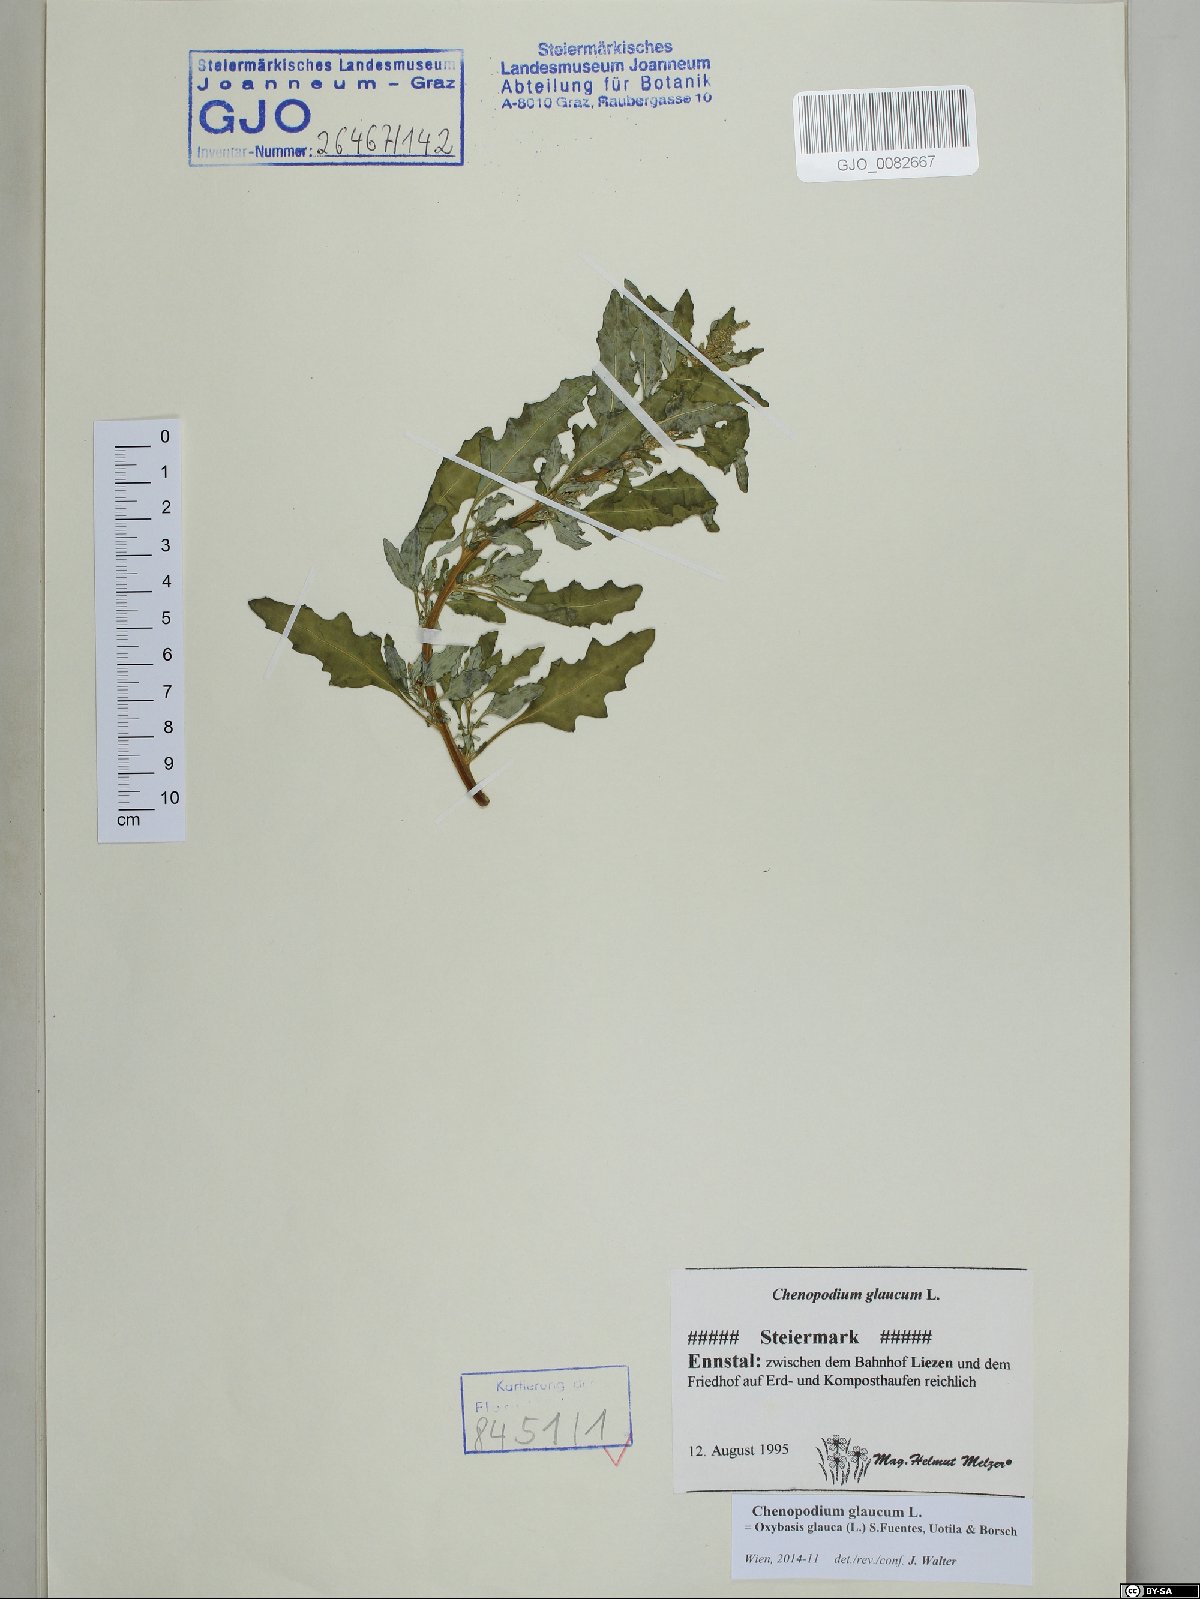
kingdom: Plantae
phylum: Tracheophyta
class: Magnoliopsida
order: Caryophyllales
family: Amaranthaceae
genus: Oxybasis
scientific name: Oxybasis glauca
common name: Glaucous goosefoot
